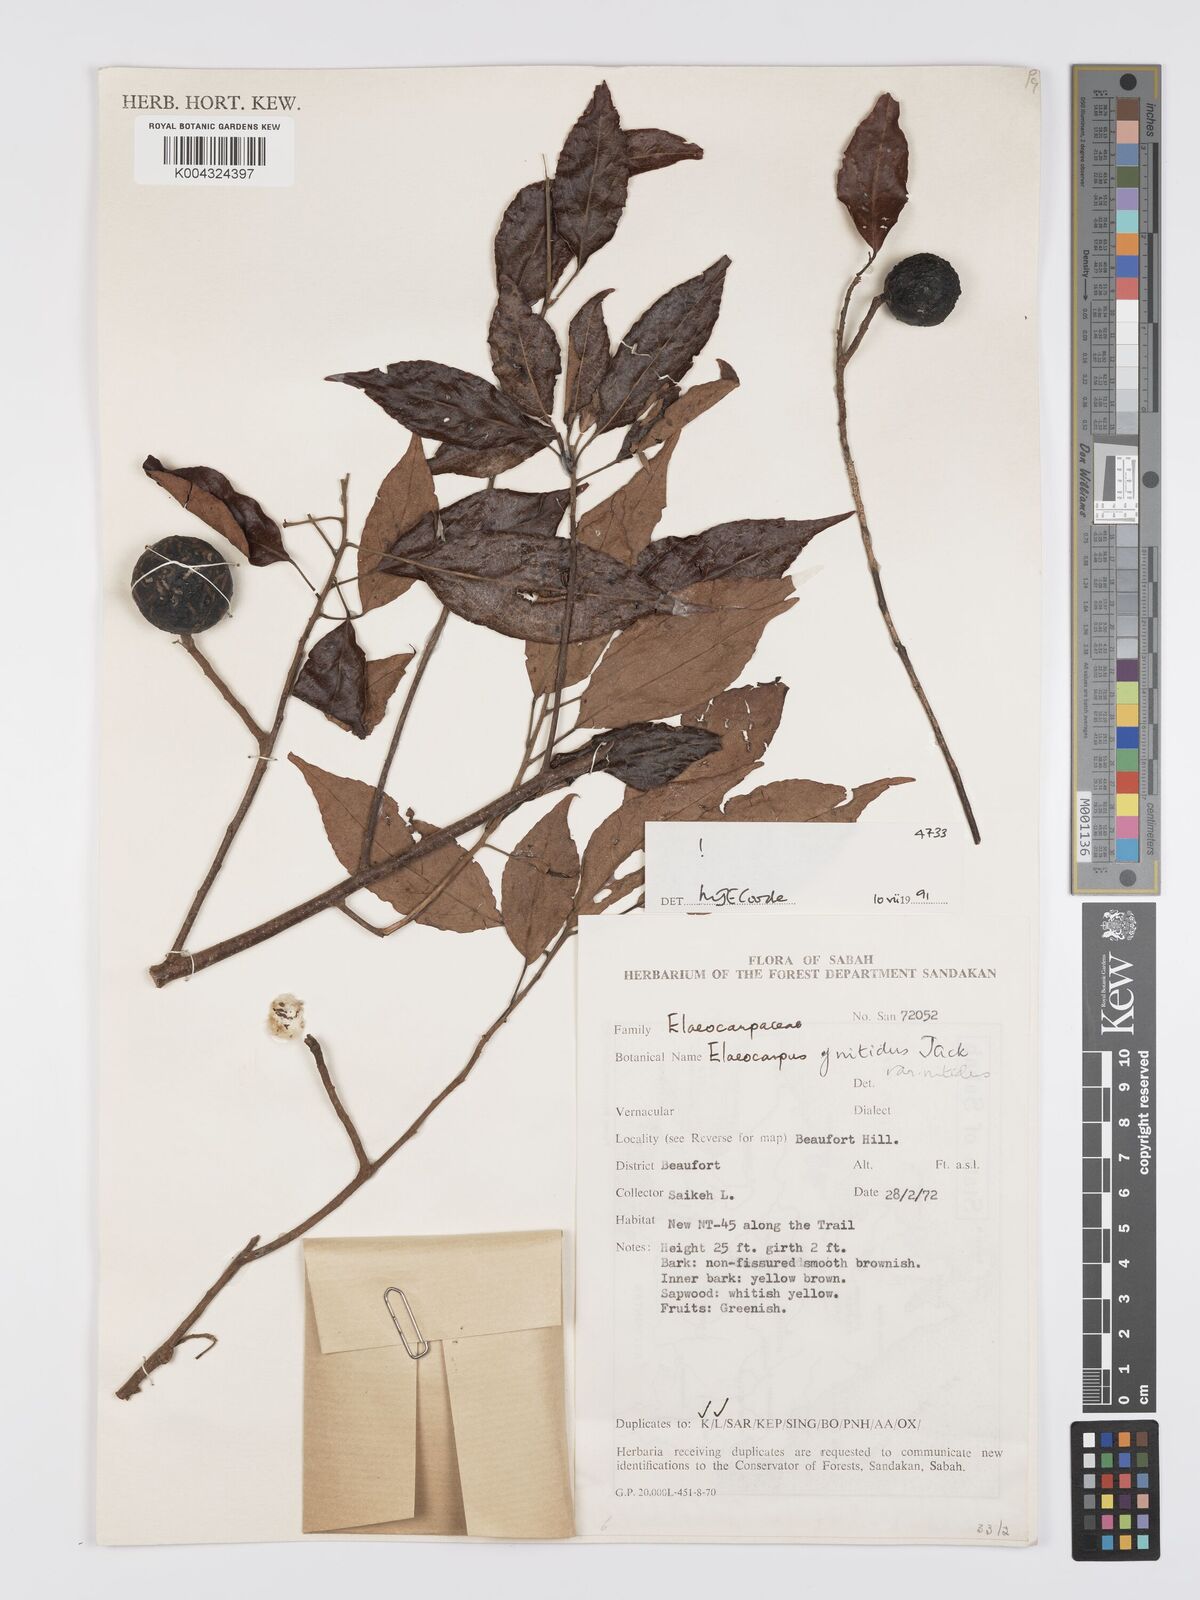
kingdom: Plantae
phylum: Tracheophyta
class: Magnoliopsida
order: Oxalidales
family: Elaeocarpaceae
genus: Elaeocarpus
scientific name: Elaeocarpus nitidus
